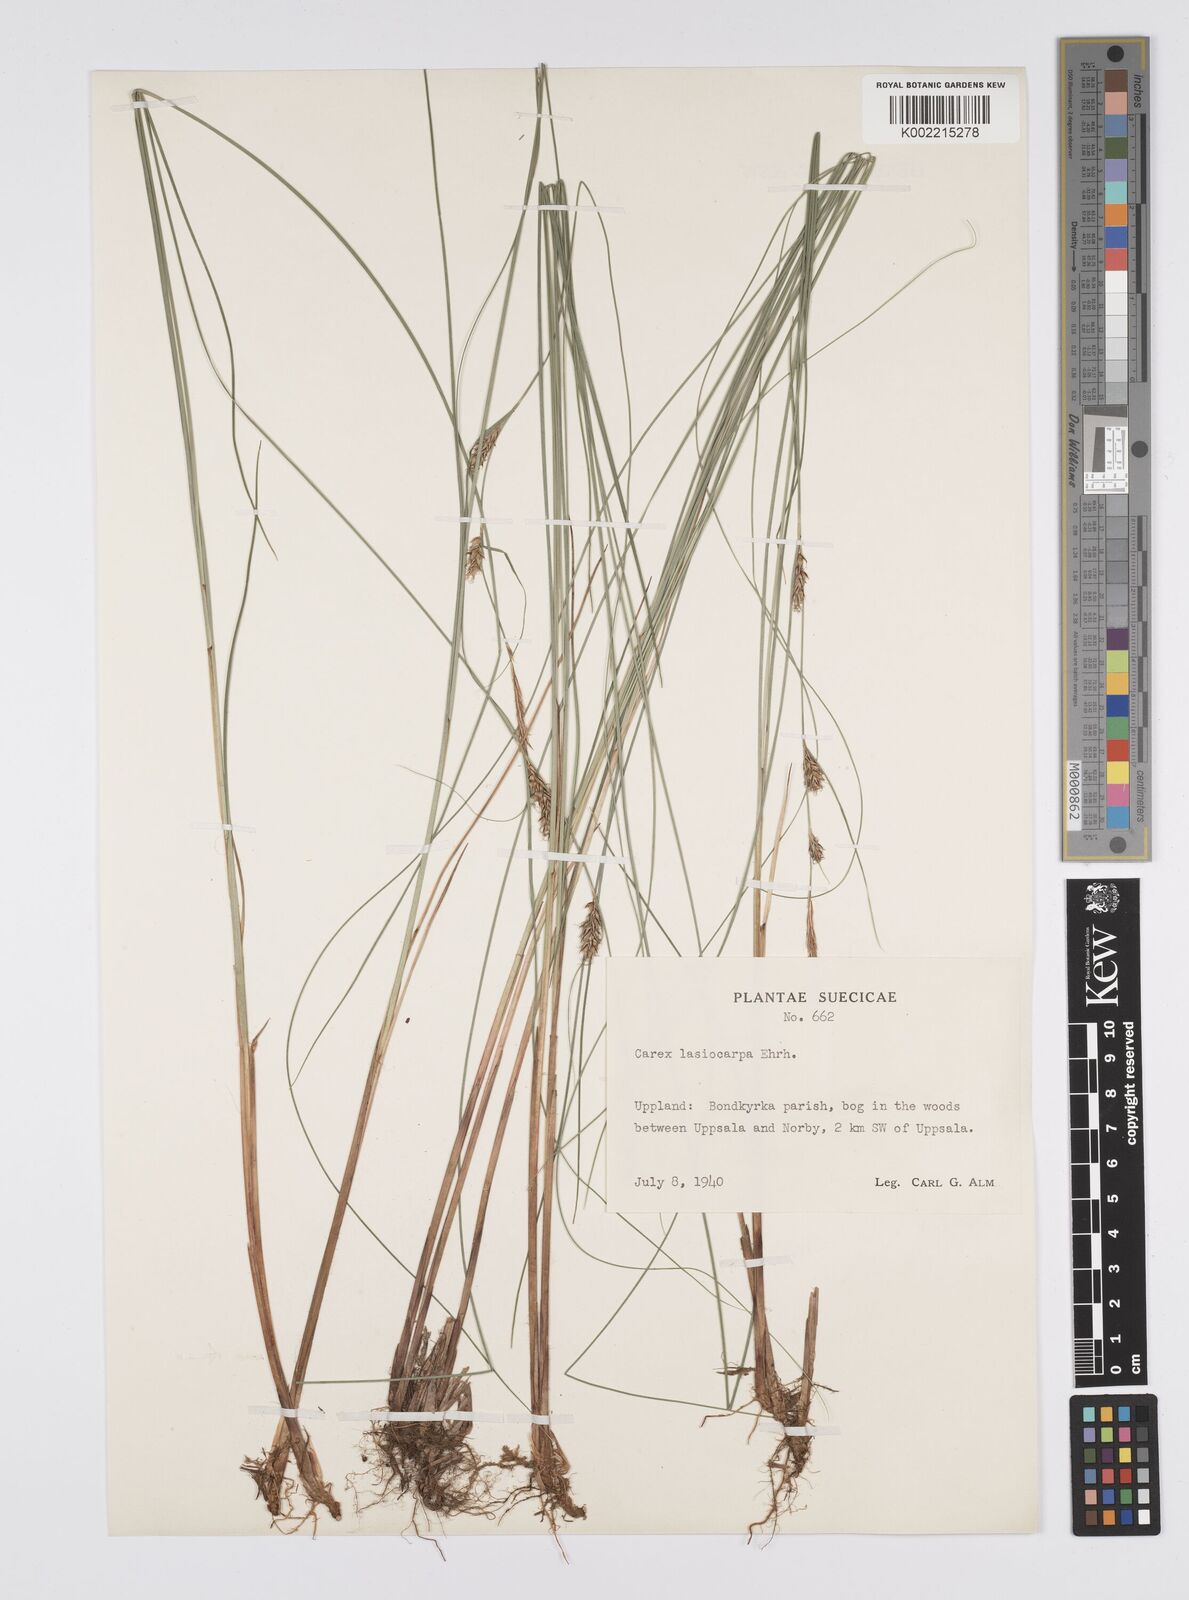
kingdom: Plantae
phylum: Tracheophyta
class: Liliopsida
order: Poales
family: Cyperaceae
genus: Carex
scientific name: Carex lasiocarpa
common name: Slender sedge
